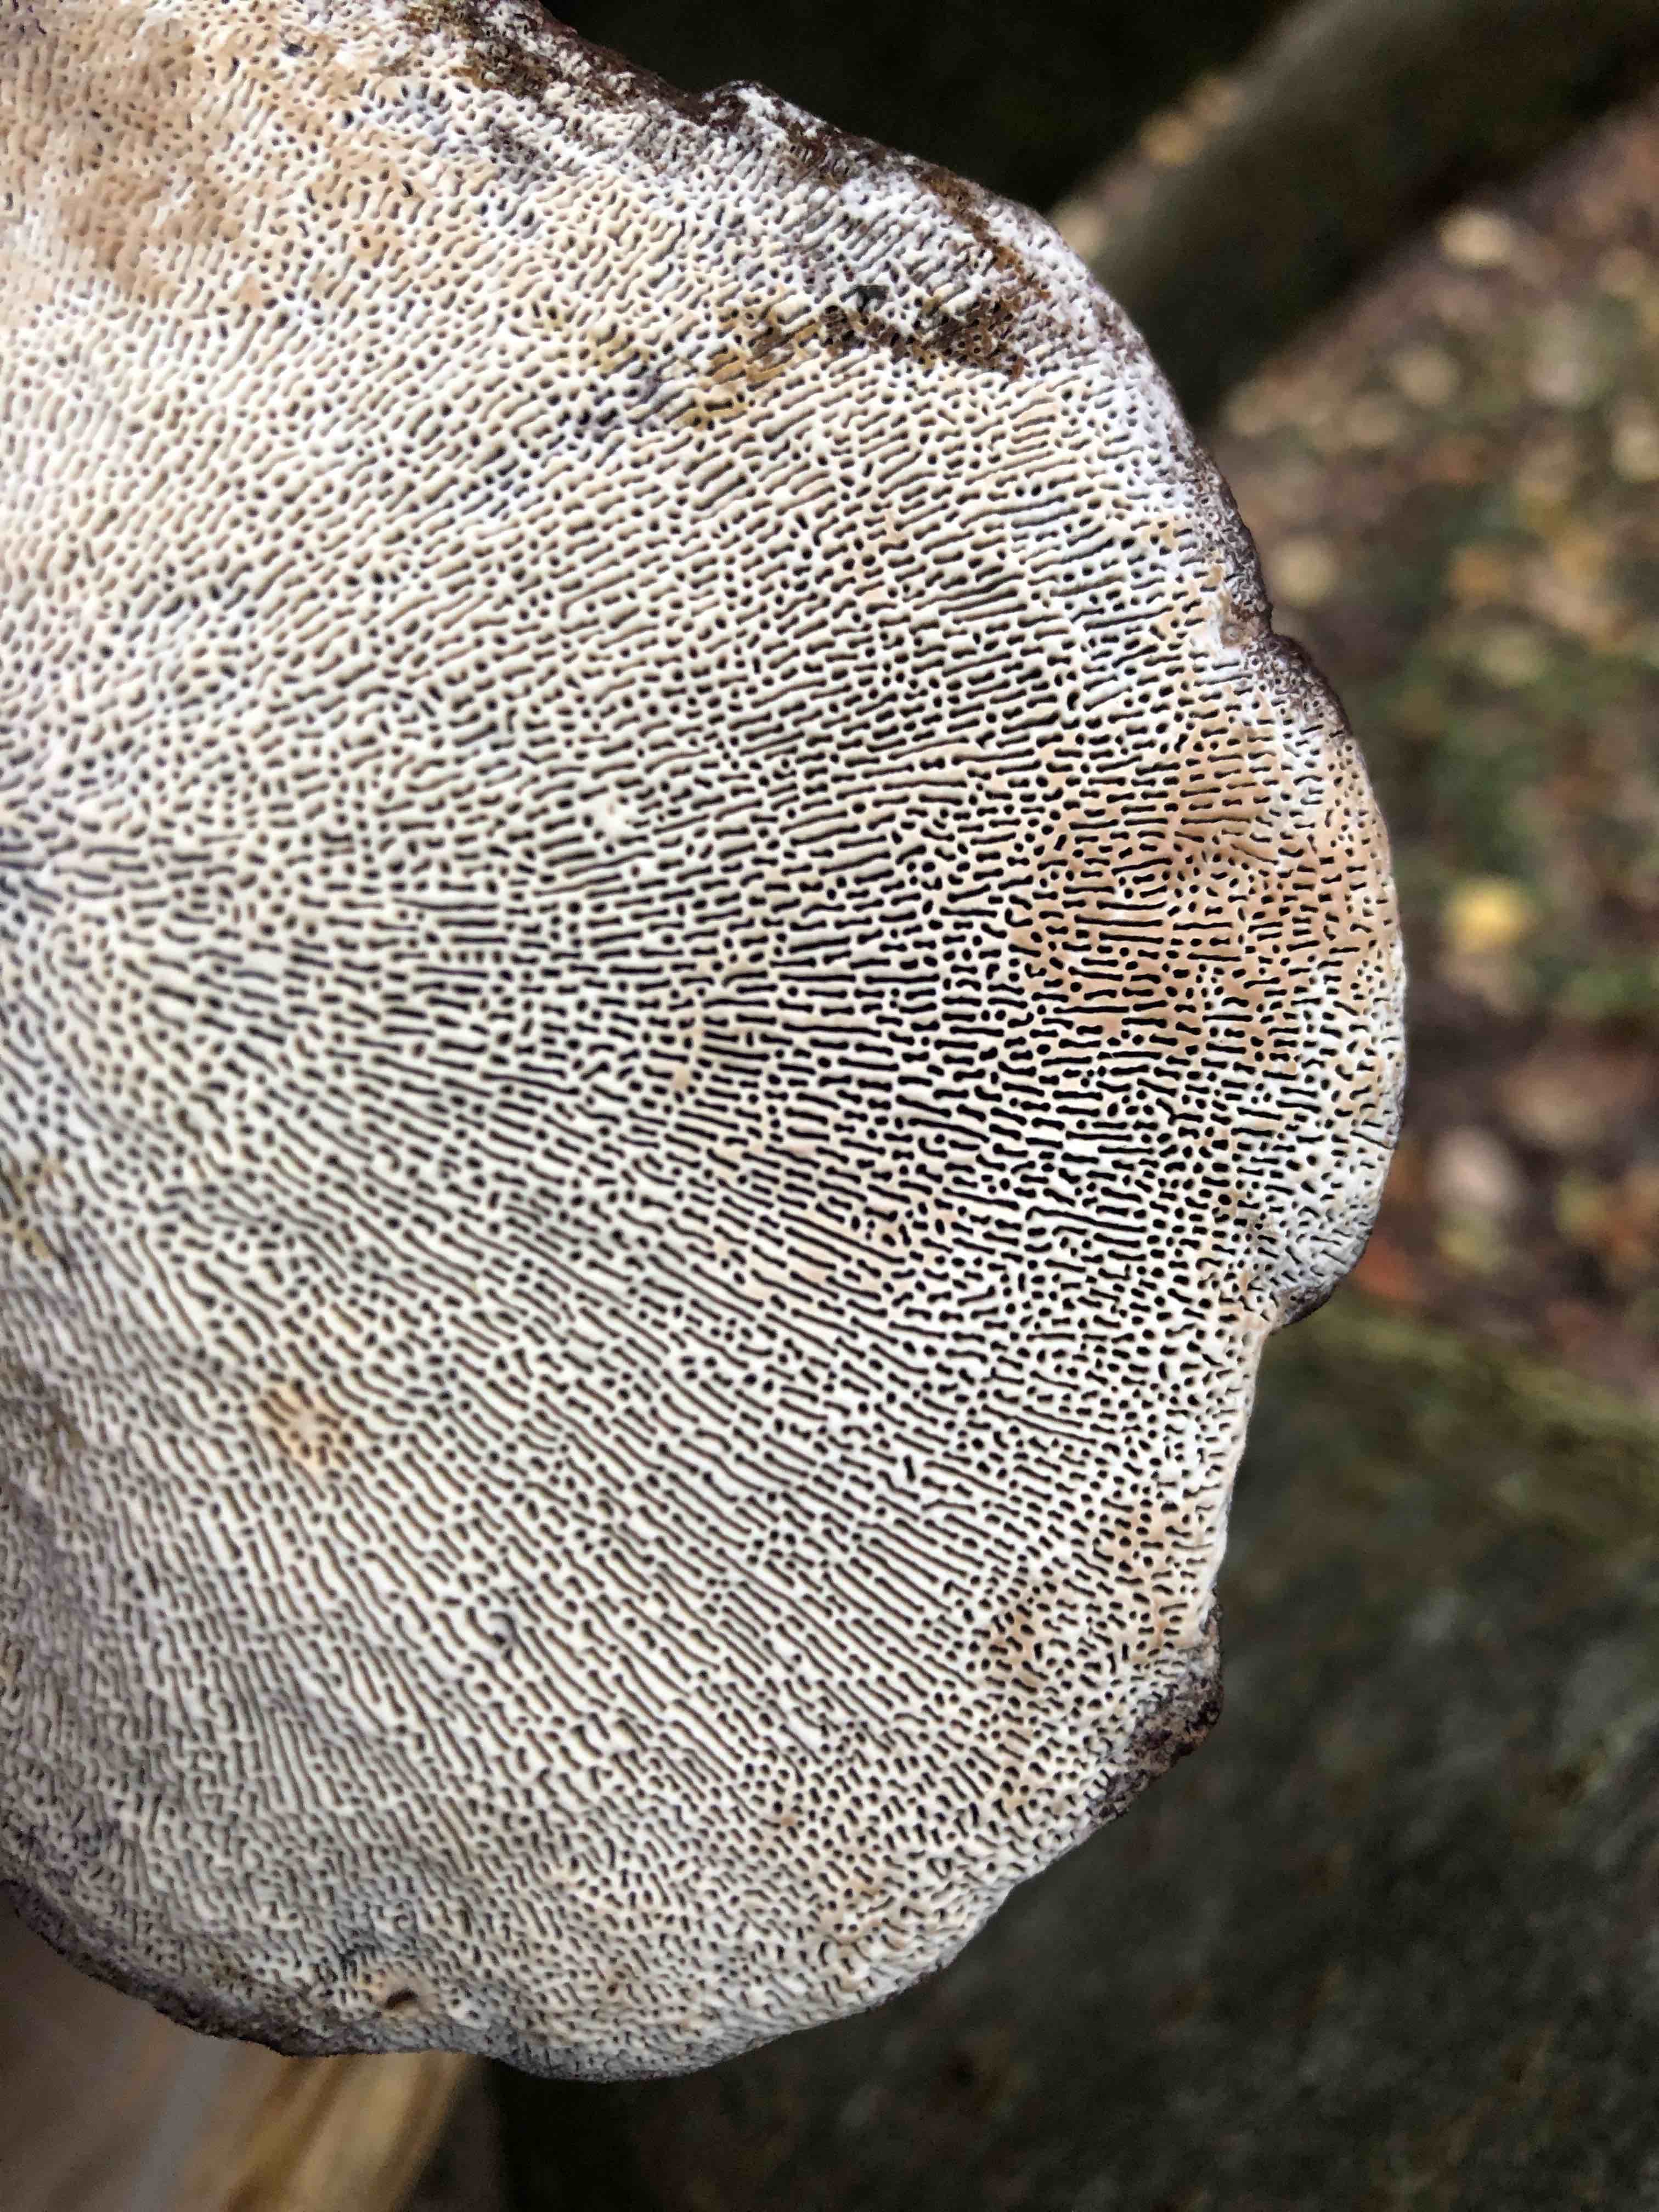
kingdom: Fungi
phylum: Basidiomycota
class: Agaricomycetes
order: Polyporales
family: Polyporaceae
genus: Daedaleopsis
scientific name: Daedaleopsis confragosa
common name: rødmende læderporesvamp
